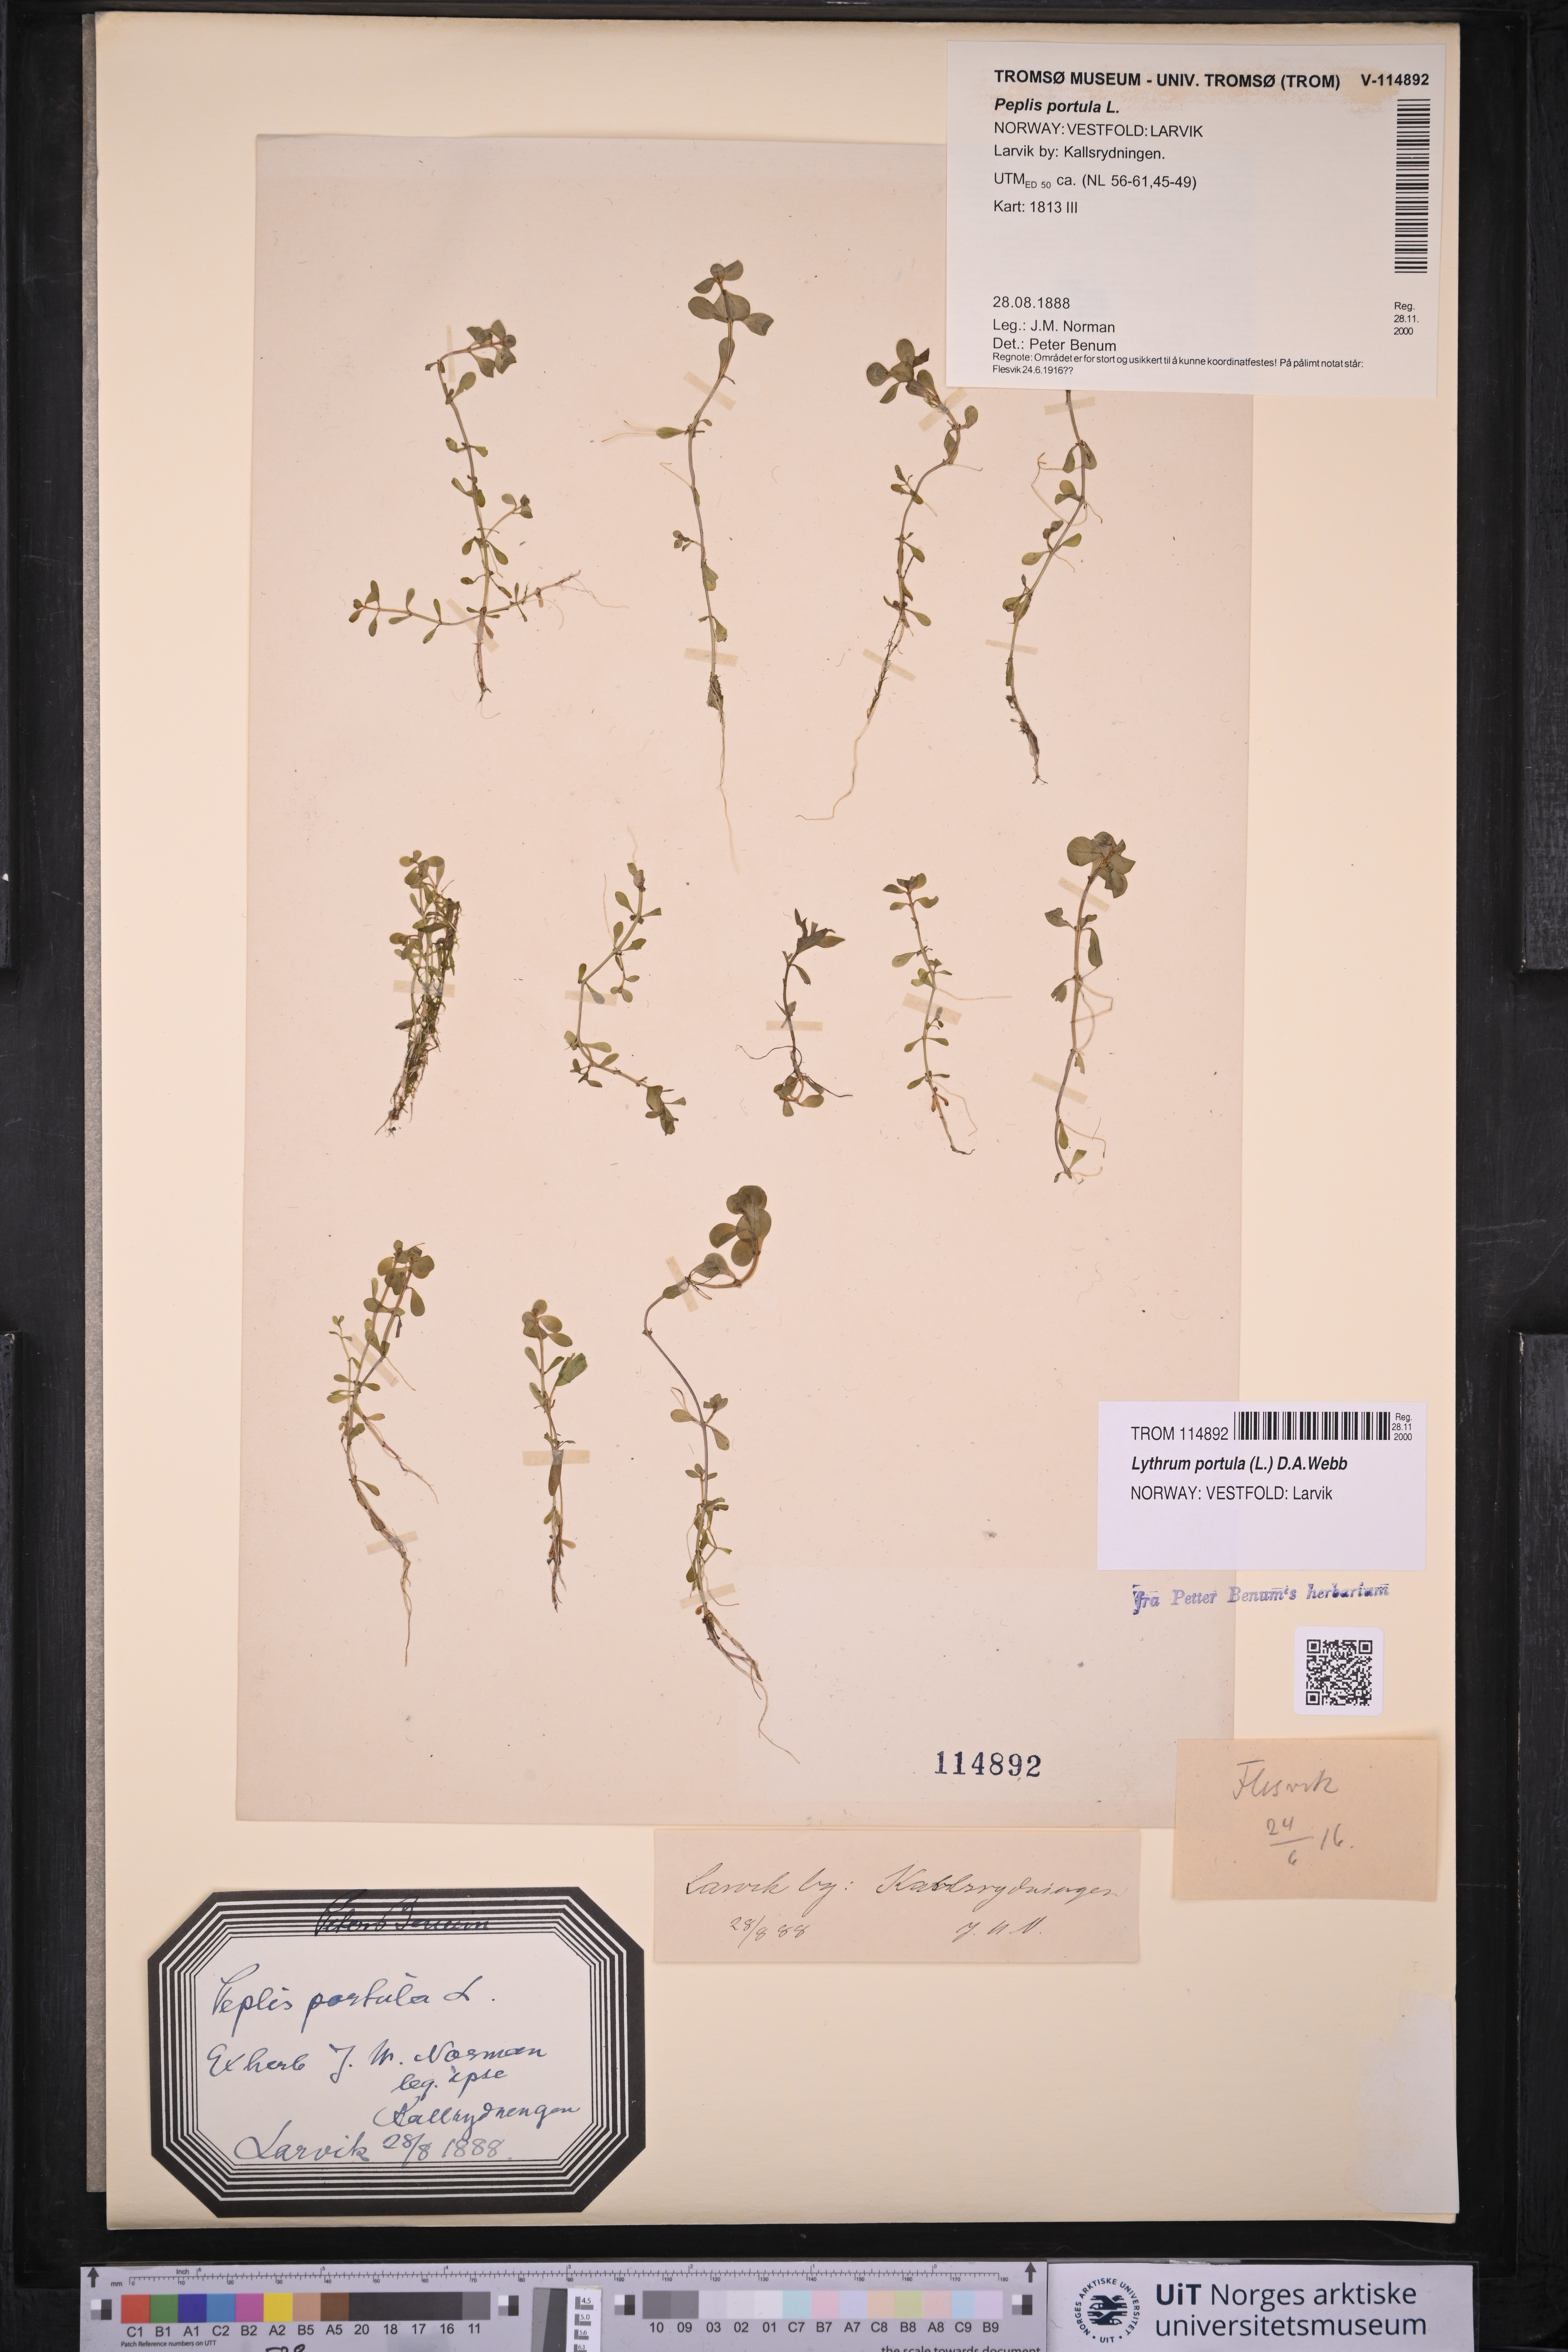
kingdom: Plantae
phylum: Tracheophyta
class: Magnoliopsida
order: Myrtales
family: Lythraceae
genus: Lythrum
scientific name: Lythrum portula
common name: Water purslane
